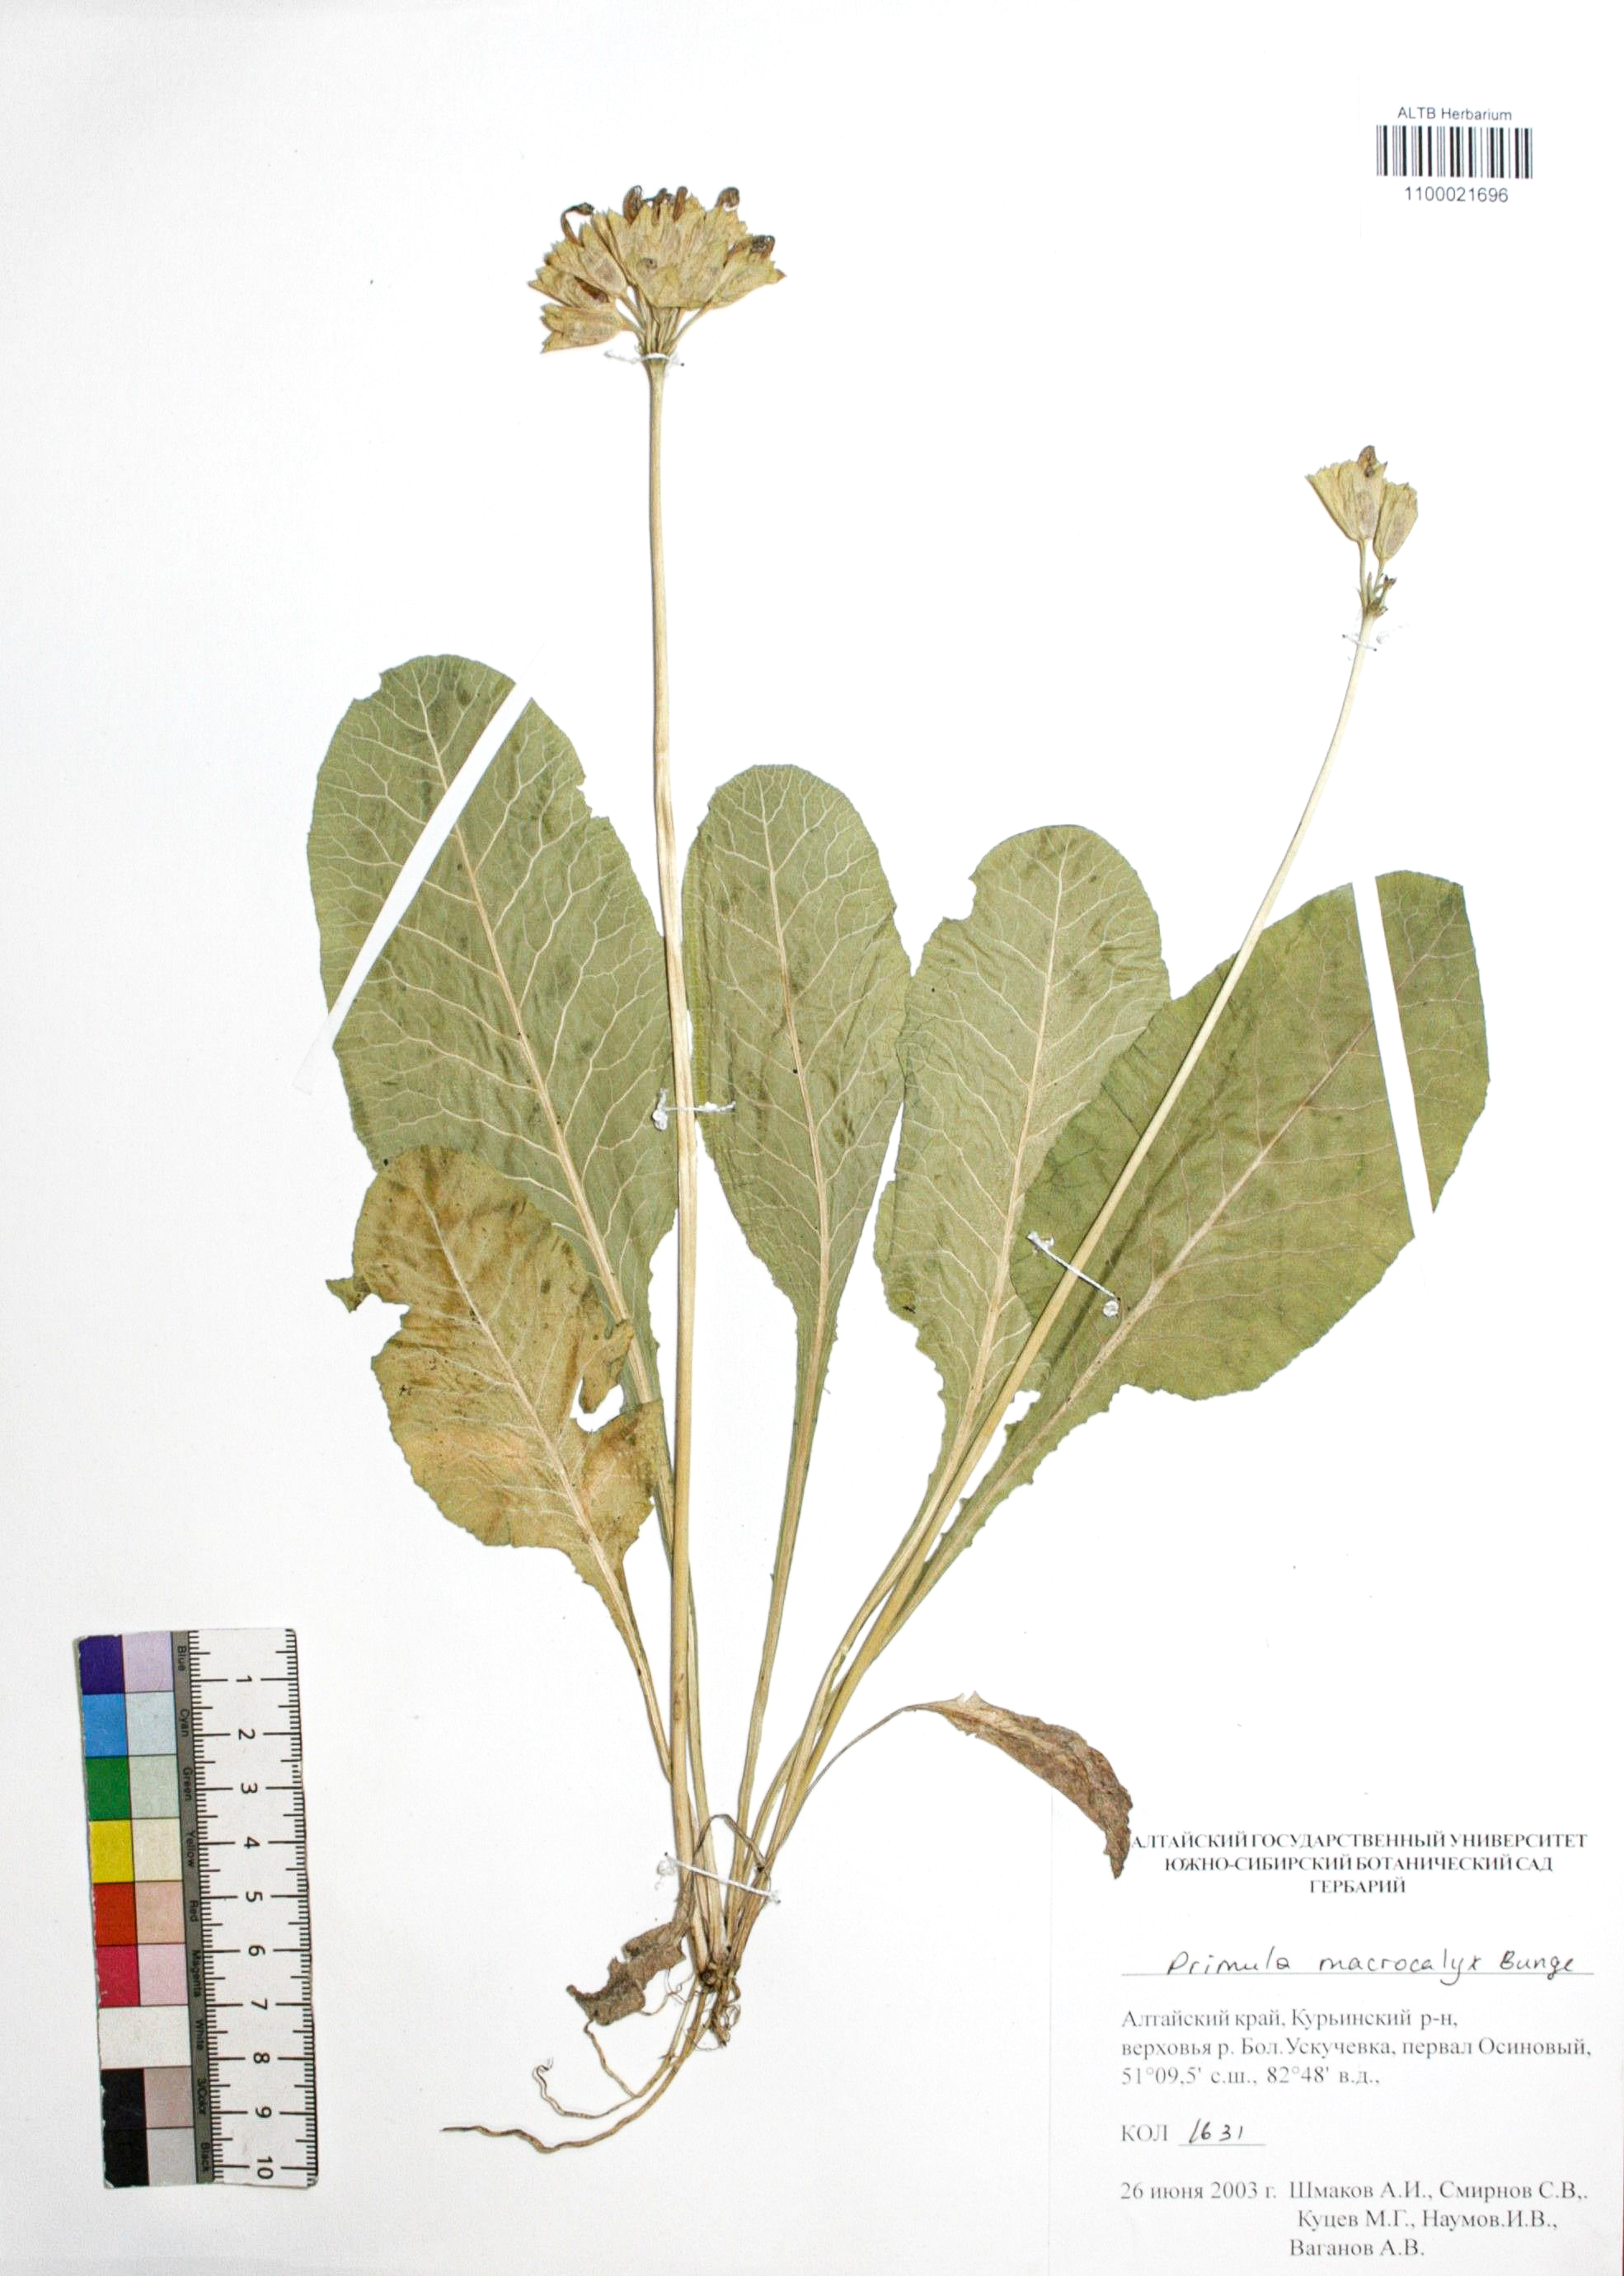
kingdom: Plantae
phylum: Tracheophyta
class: Magnoliopsida
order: Ericales
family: Primulaceae
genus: Primula
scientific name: Primula veris
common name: Cowslip
